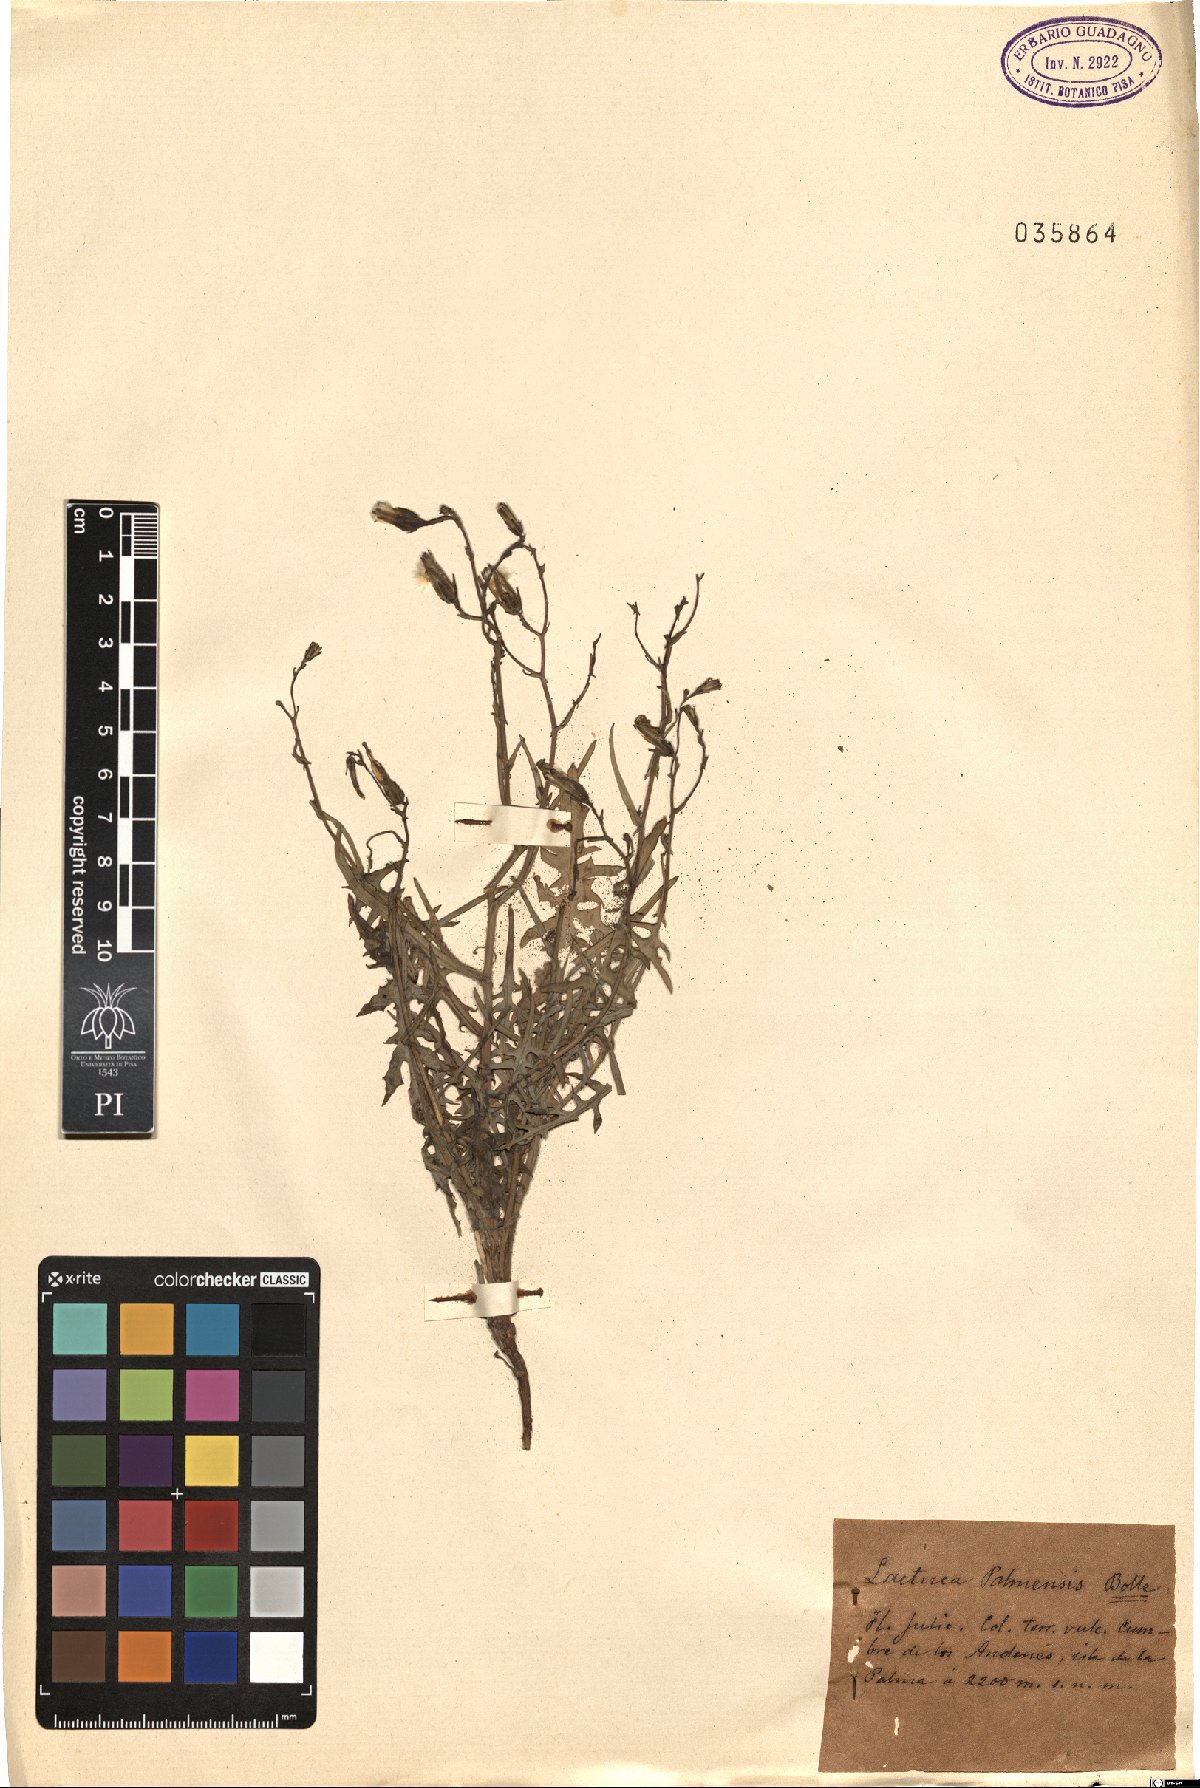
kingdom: Plantae
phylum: Tracheophyta
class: Magnoliopsida
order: Asterales
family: Asteraceae
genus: Lactuca
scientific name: Lactuca palmensis
